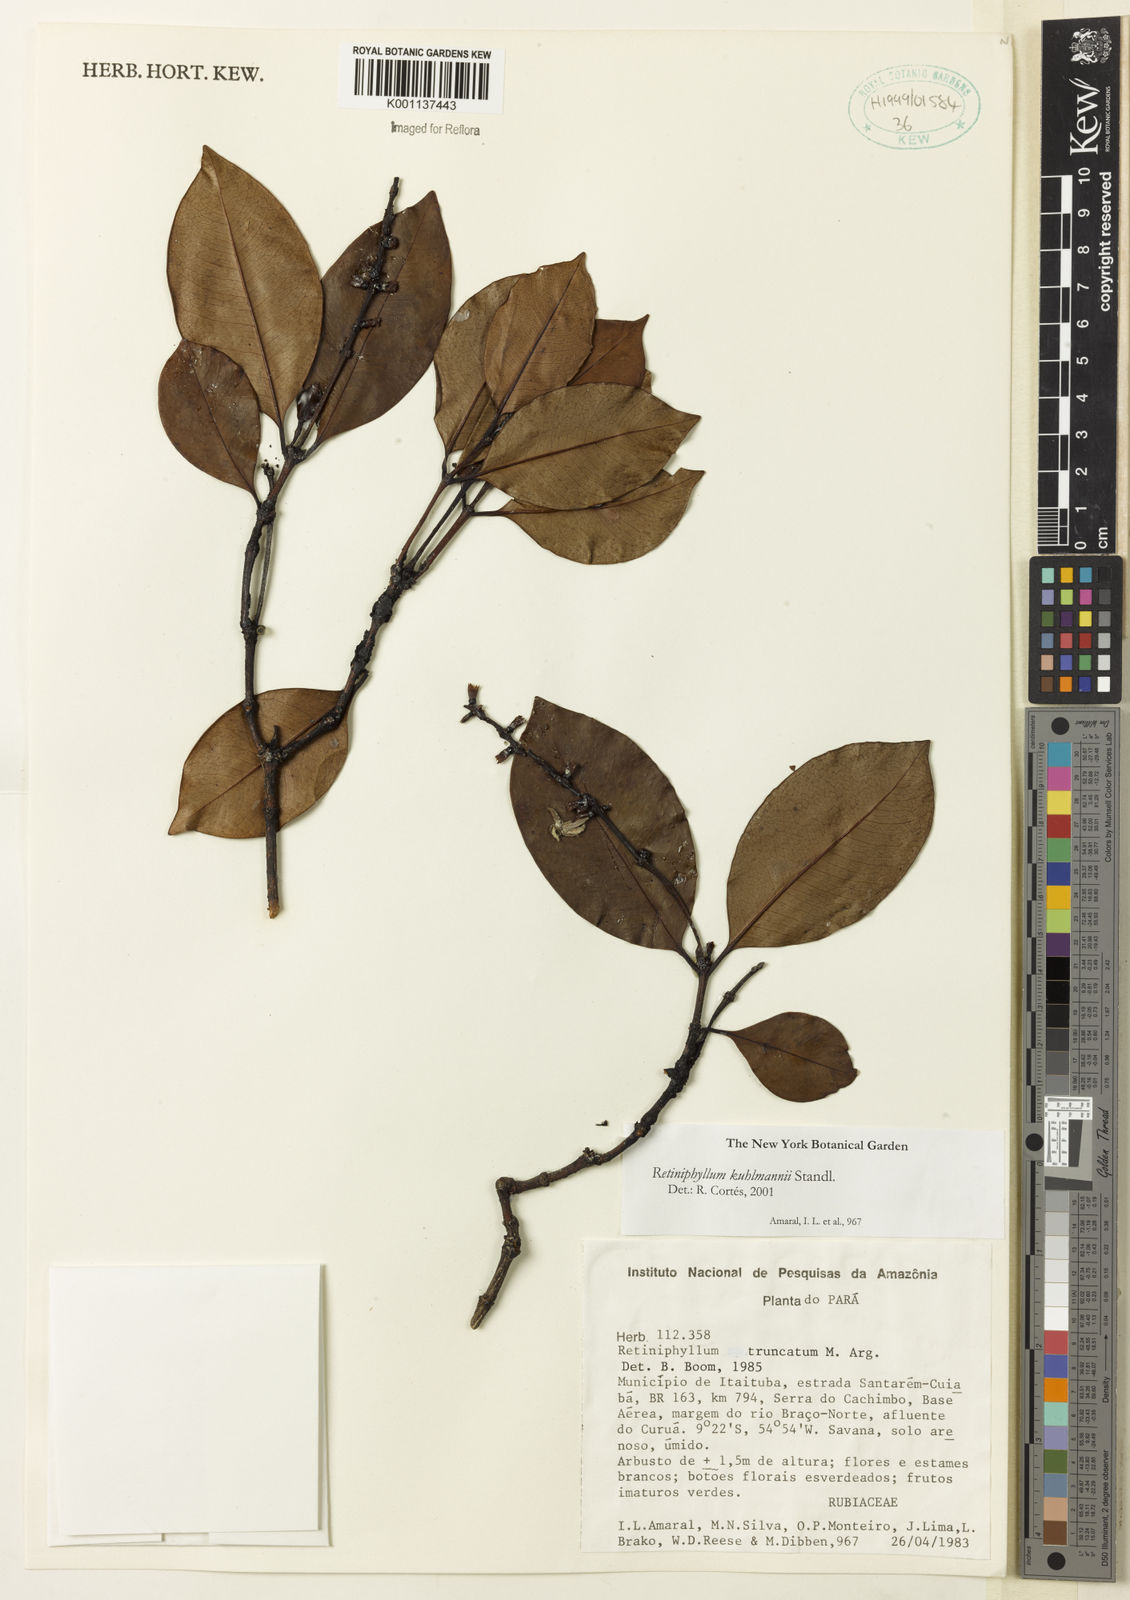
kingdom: Plantae
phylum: Tracheophyta
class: Magnoliopsida
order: Gentianales
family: Rubiaceae
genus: Retiniphyllum
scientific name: Retiniphyllum kuhlmannii
